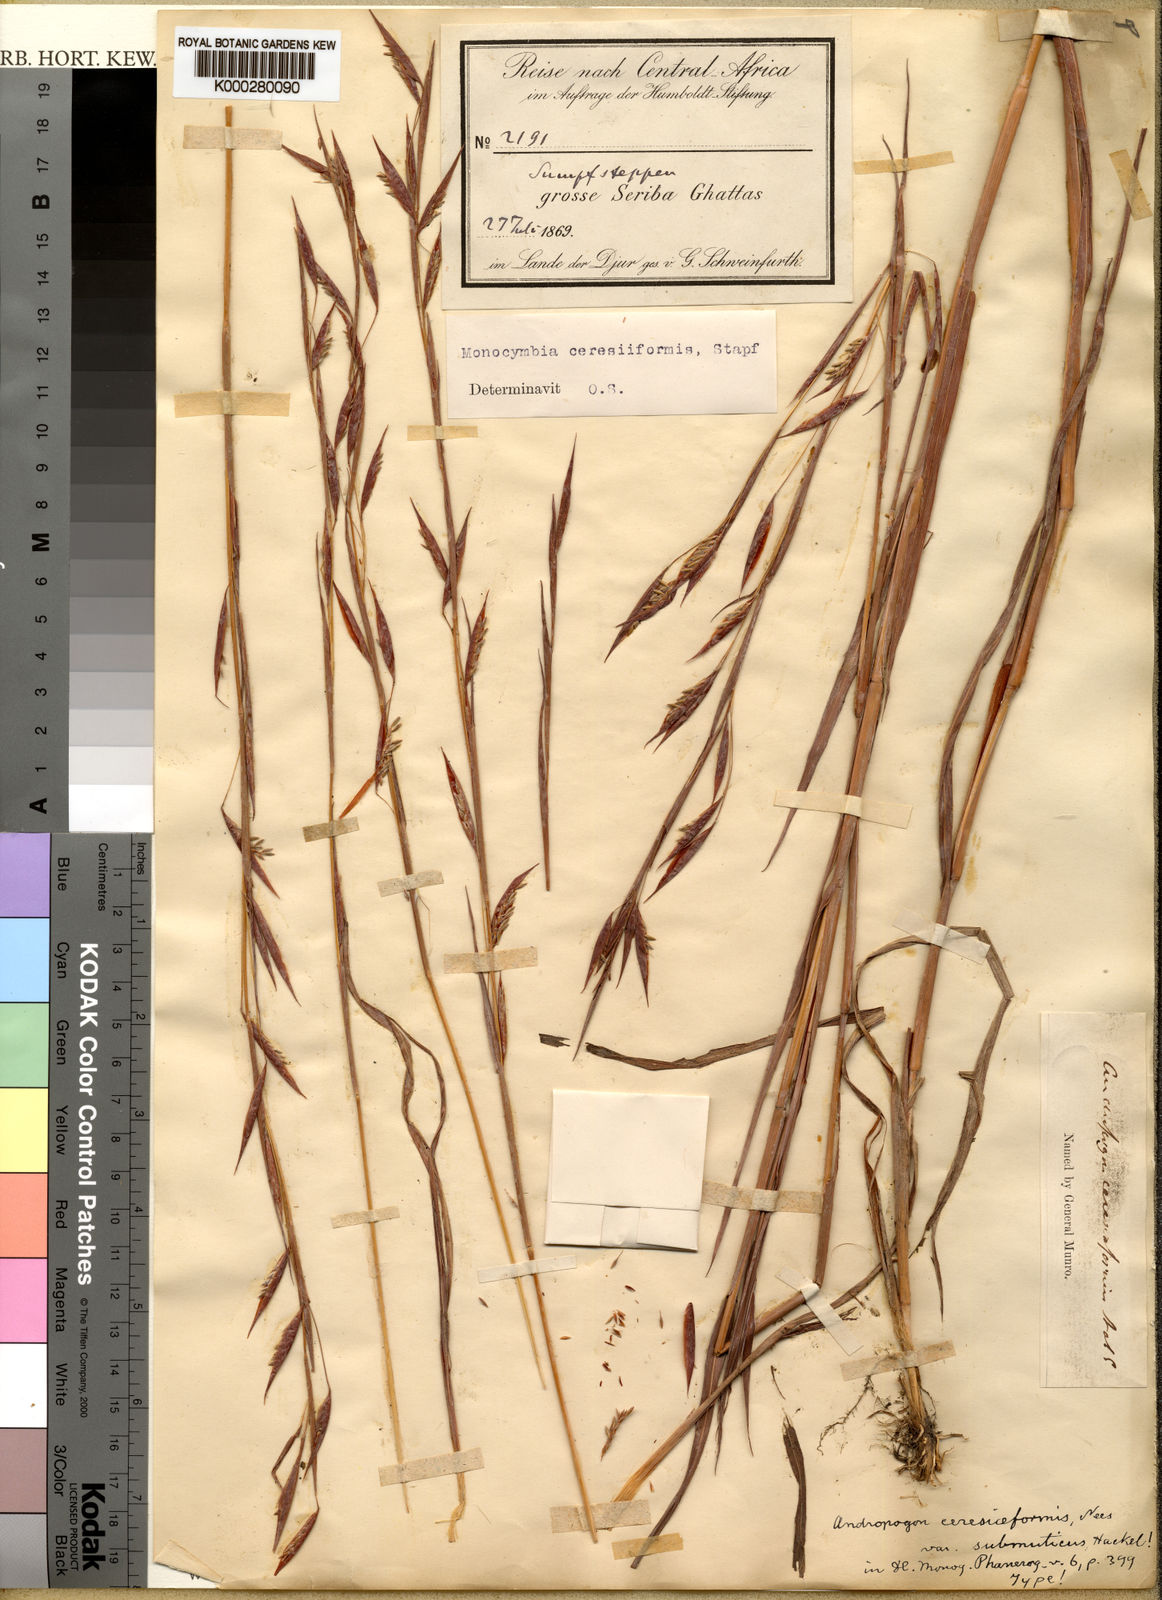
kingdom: Plantae
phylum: Tracheophyta
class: Liliopsida
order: Poales
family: Poaceae
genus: Monocymbium
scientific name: Monocymbium ceresiiforme
